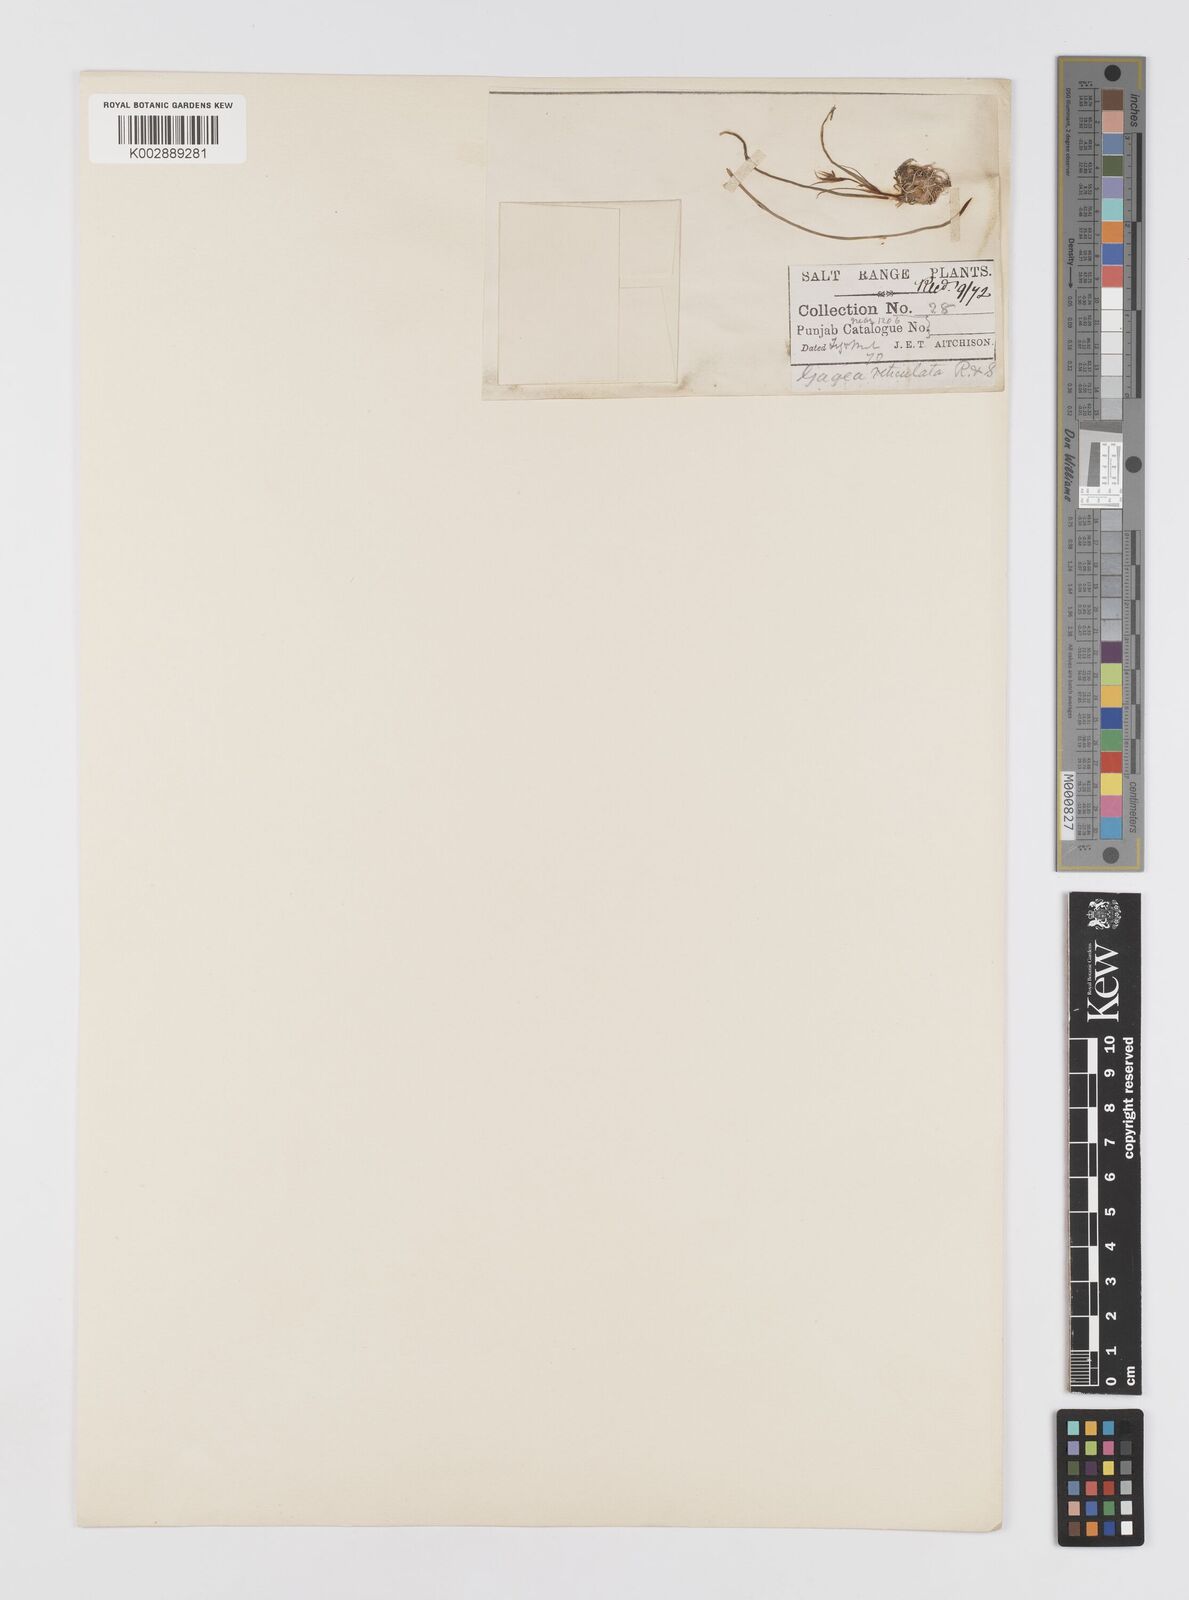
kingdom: Plantae
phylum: Tracheophyta
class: Liliopsida
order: Liliales
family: Liliaceae
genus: Gagea
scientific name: Gagea reticulata
